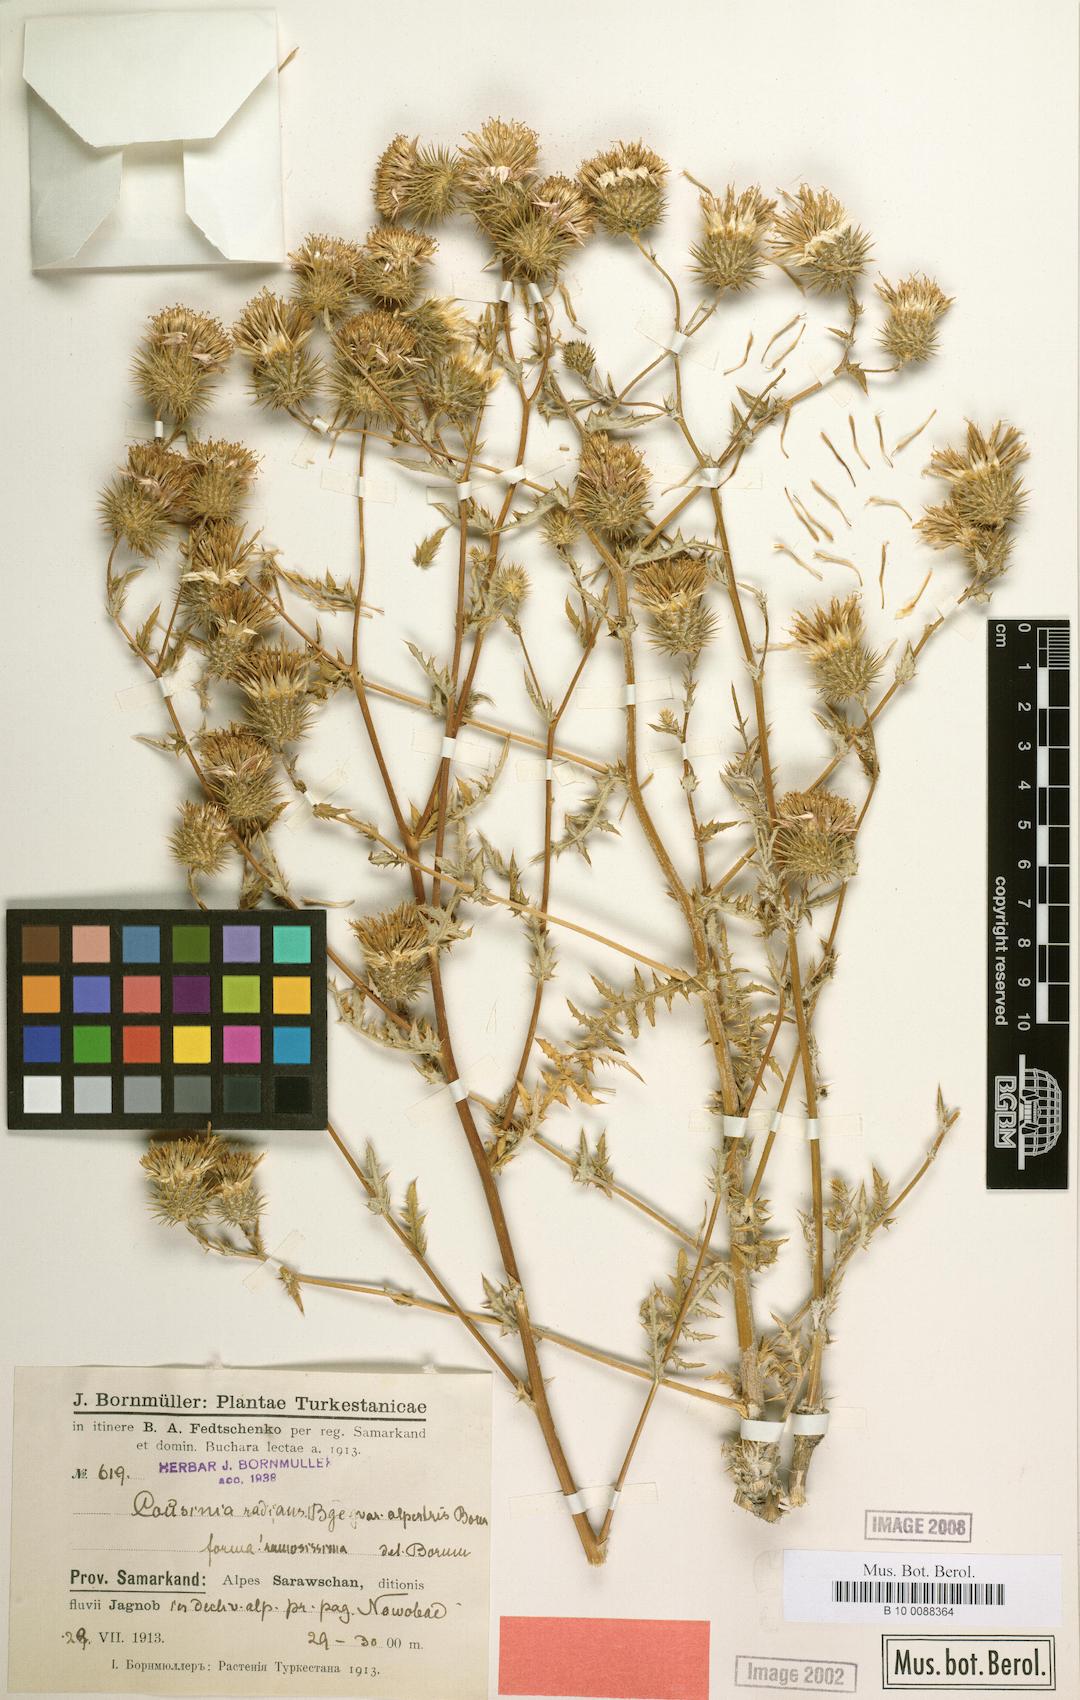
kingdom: Plantae
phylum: Tracheophyta
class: Magnoliopsida
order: Asterales
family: Asteraceae
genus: Cousinia
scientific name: Cousinia alpestris
